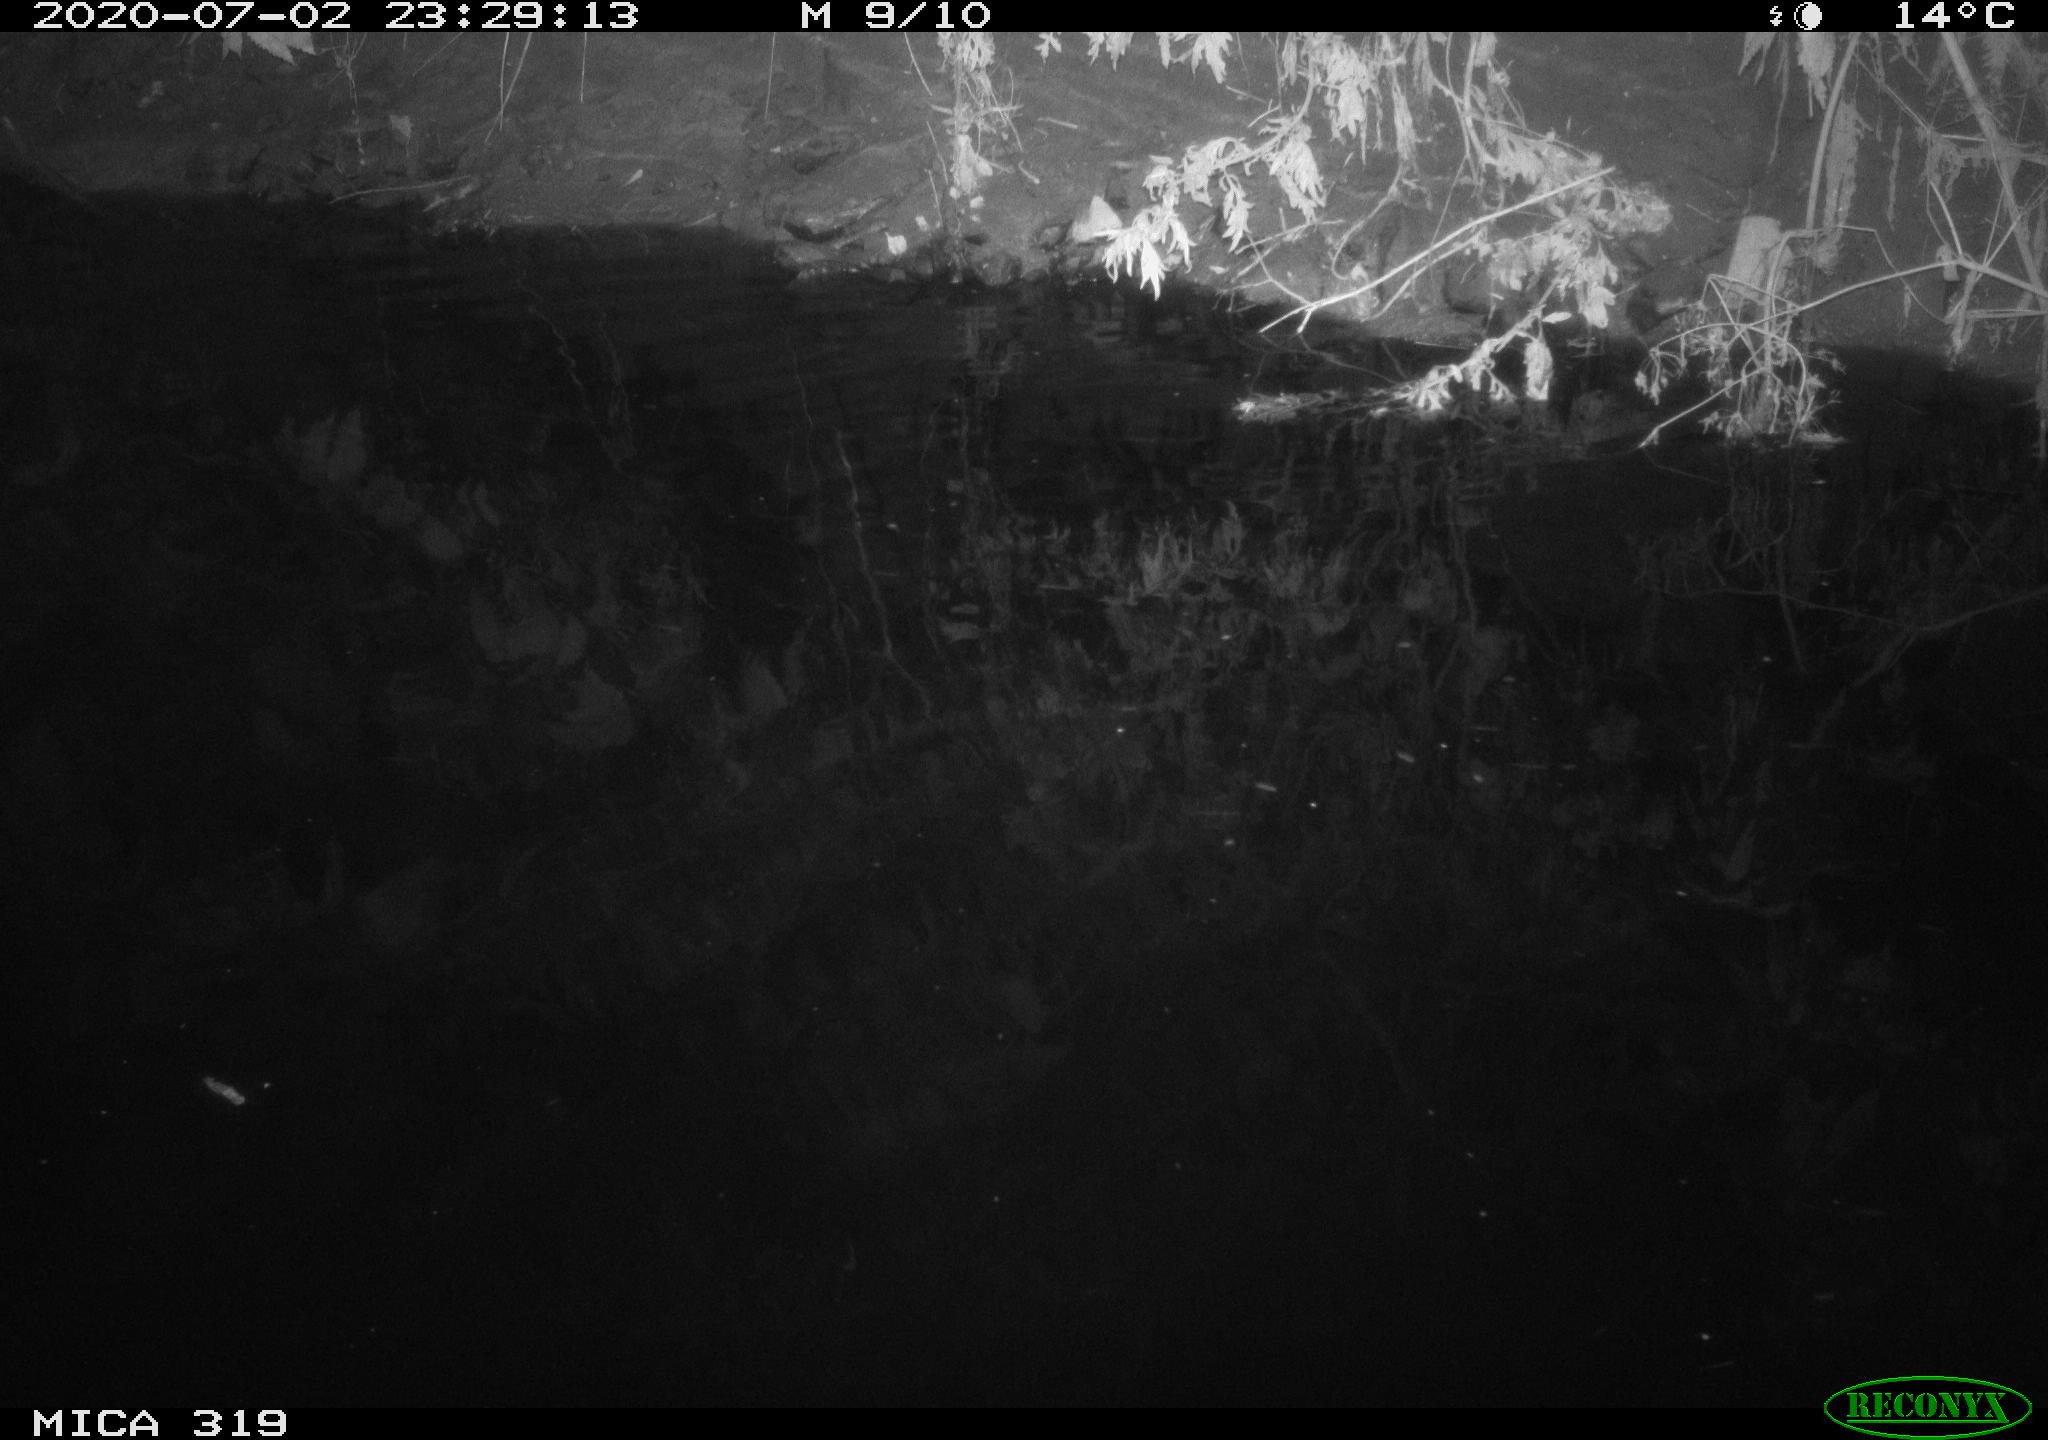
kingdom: Animalia
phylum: Chordata
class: Aves
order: Anseriformes
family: Anatidae
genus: Anas
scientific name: Anas platyrhynchos
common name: Mallard
